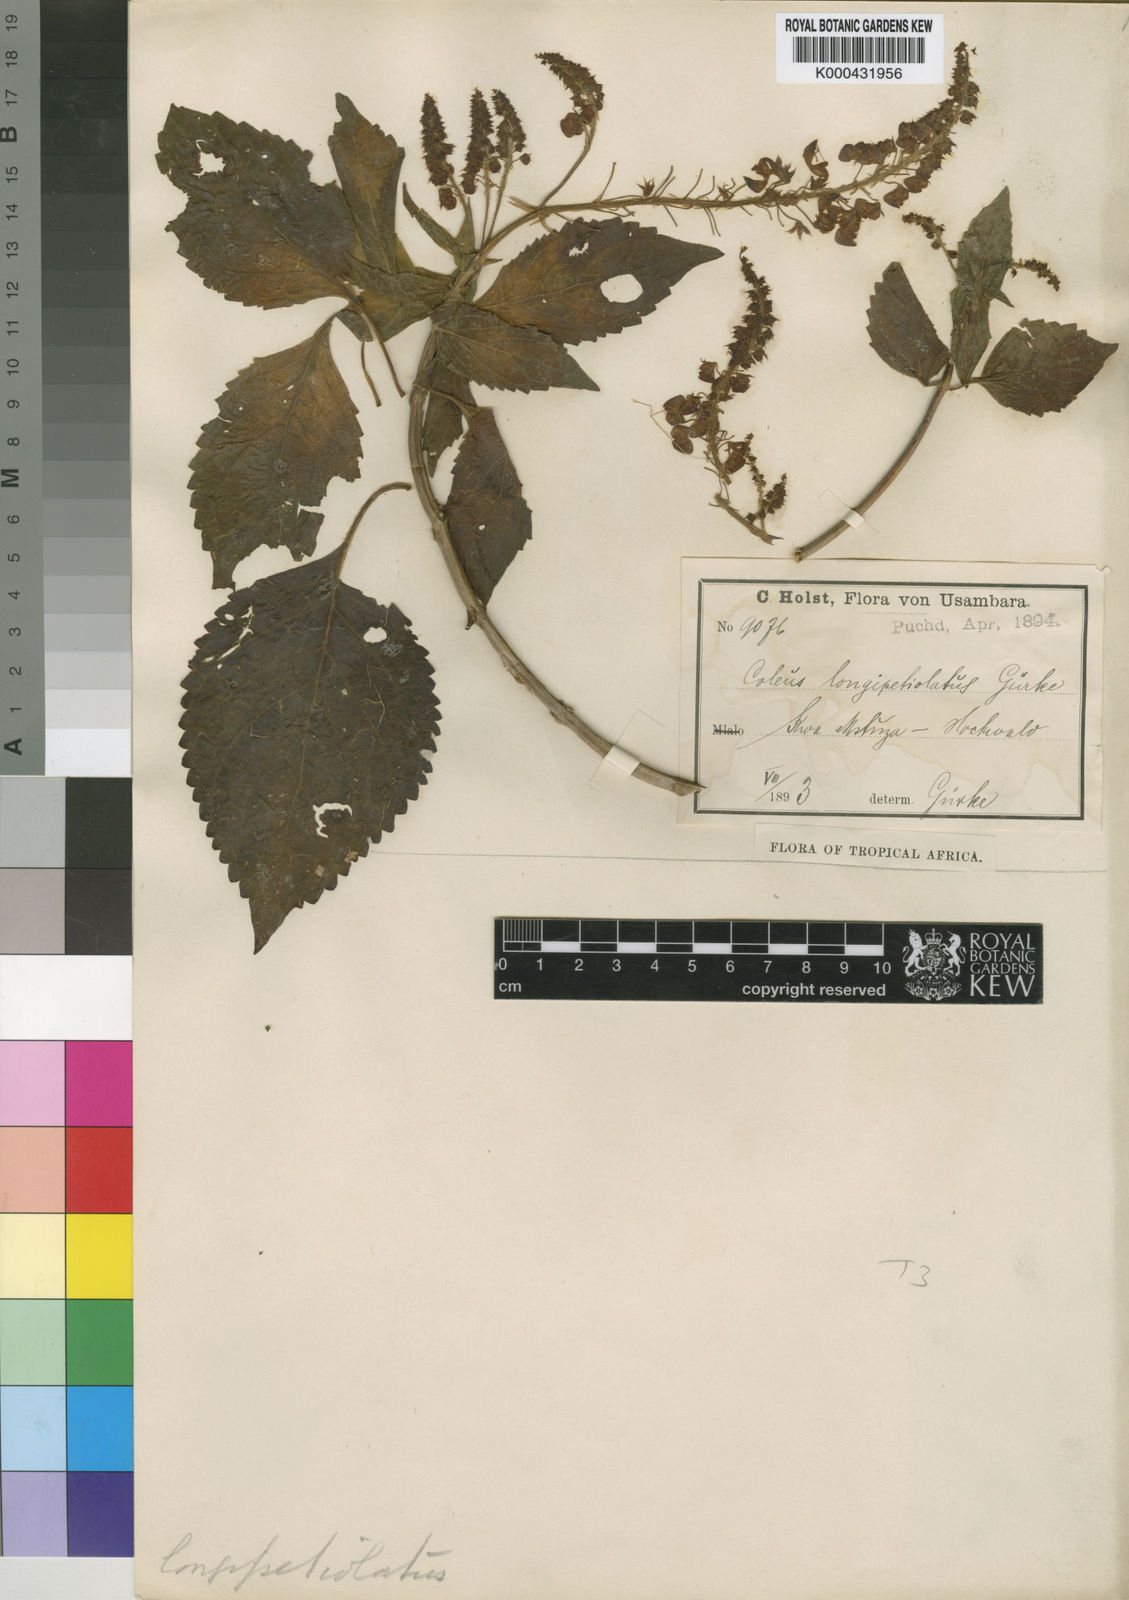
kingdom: Plantae
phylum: Tracheophyta
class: Magnoliopsida
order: Lamiales
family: Lamiaceae
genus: Plectranthus
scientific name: Plectranthus
